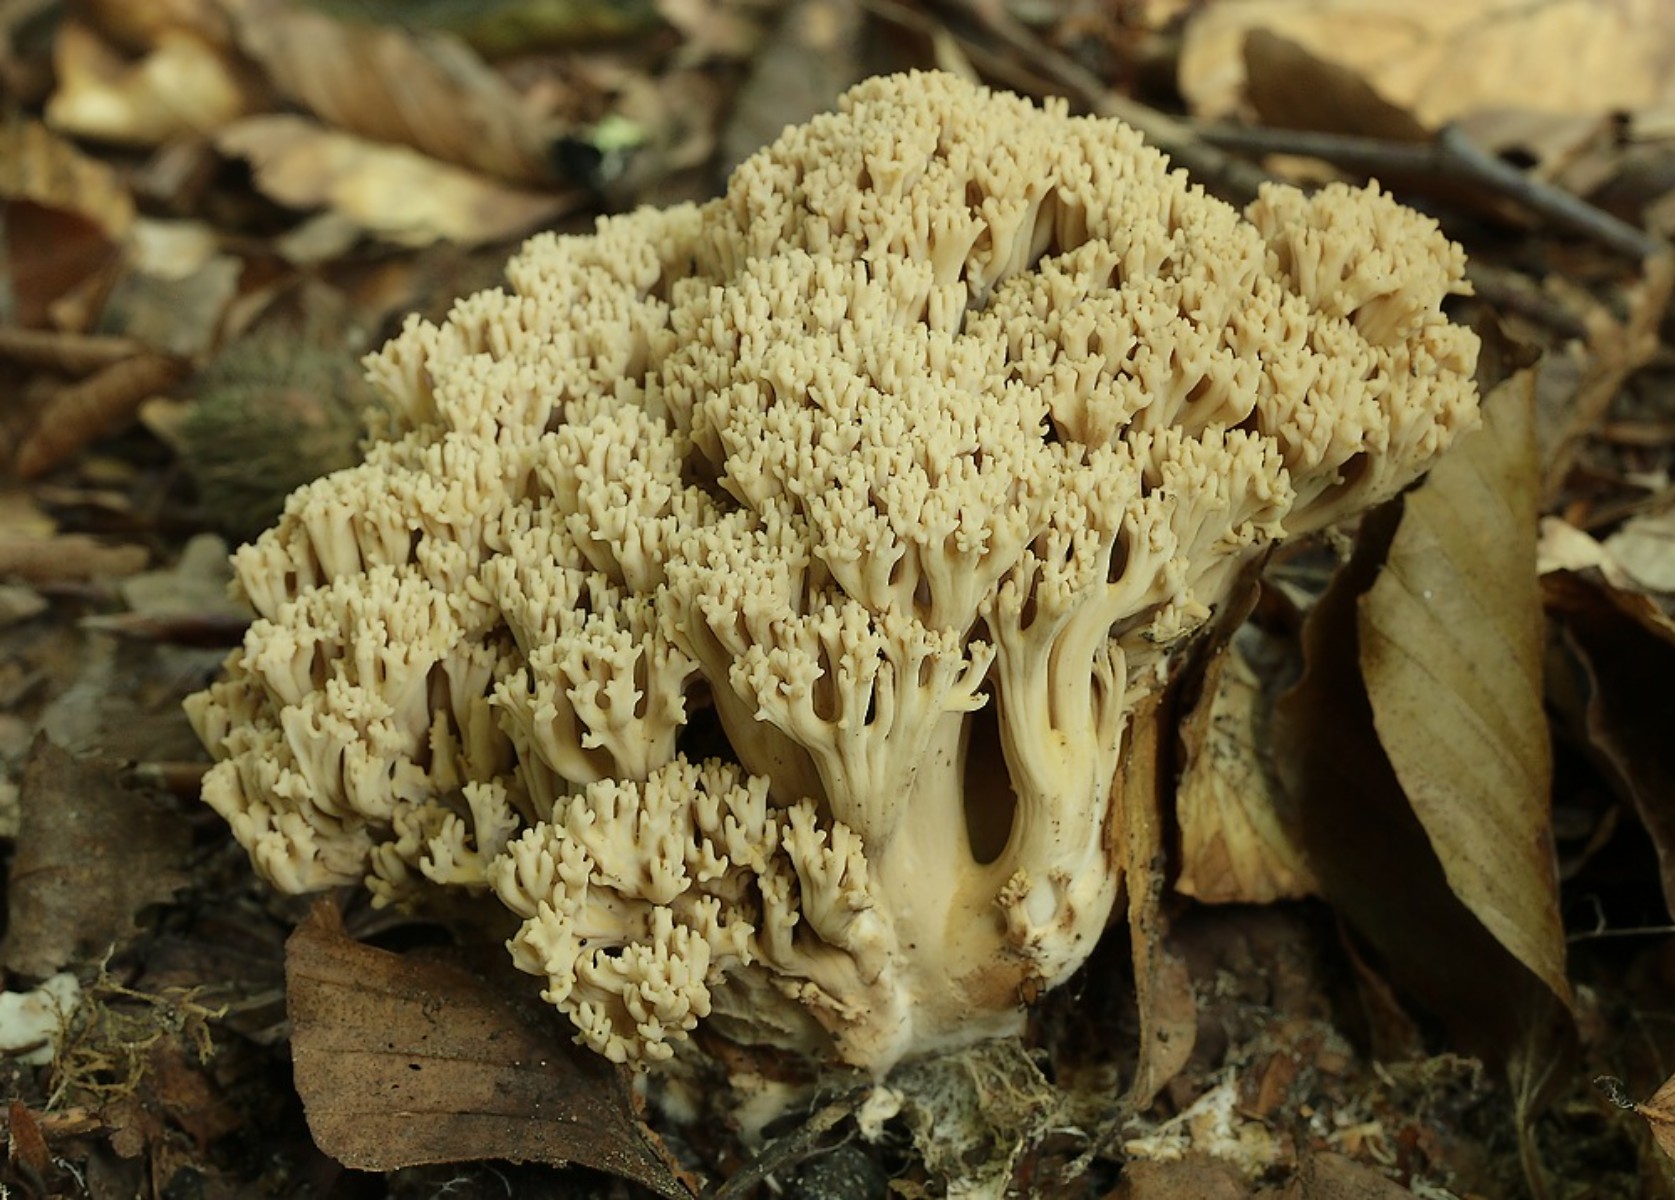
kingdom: Fungi
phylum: Basidiomycota
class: Agaricomycetes
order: Gomphales
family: Gomphaceae
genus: Ramaria
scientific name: Ramaria
